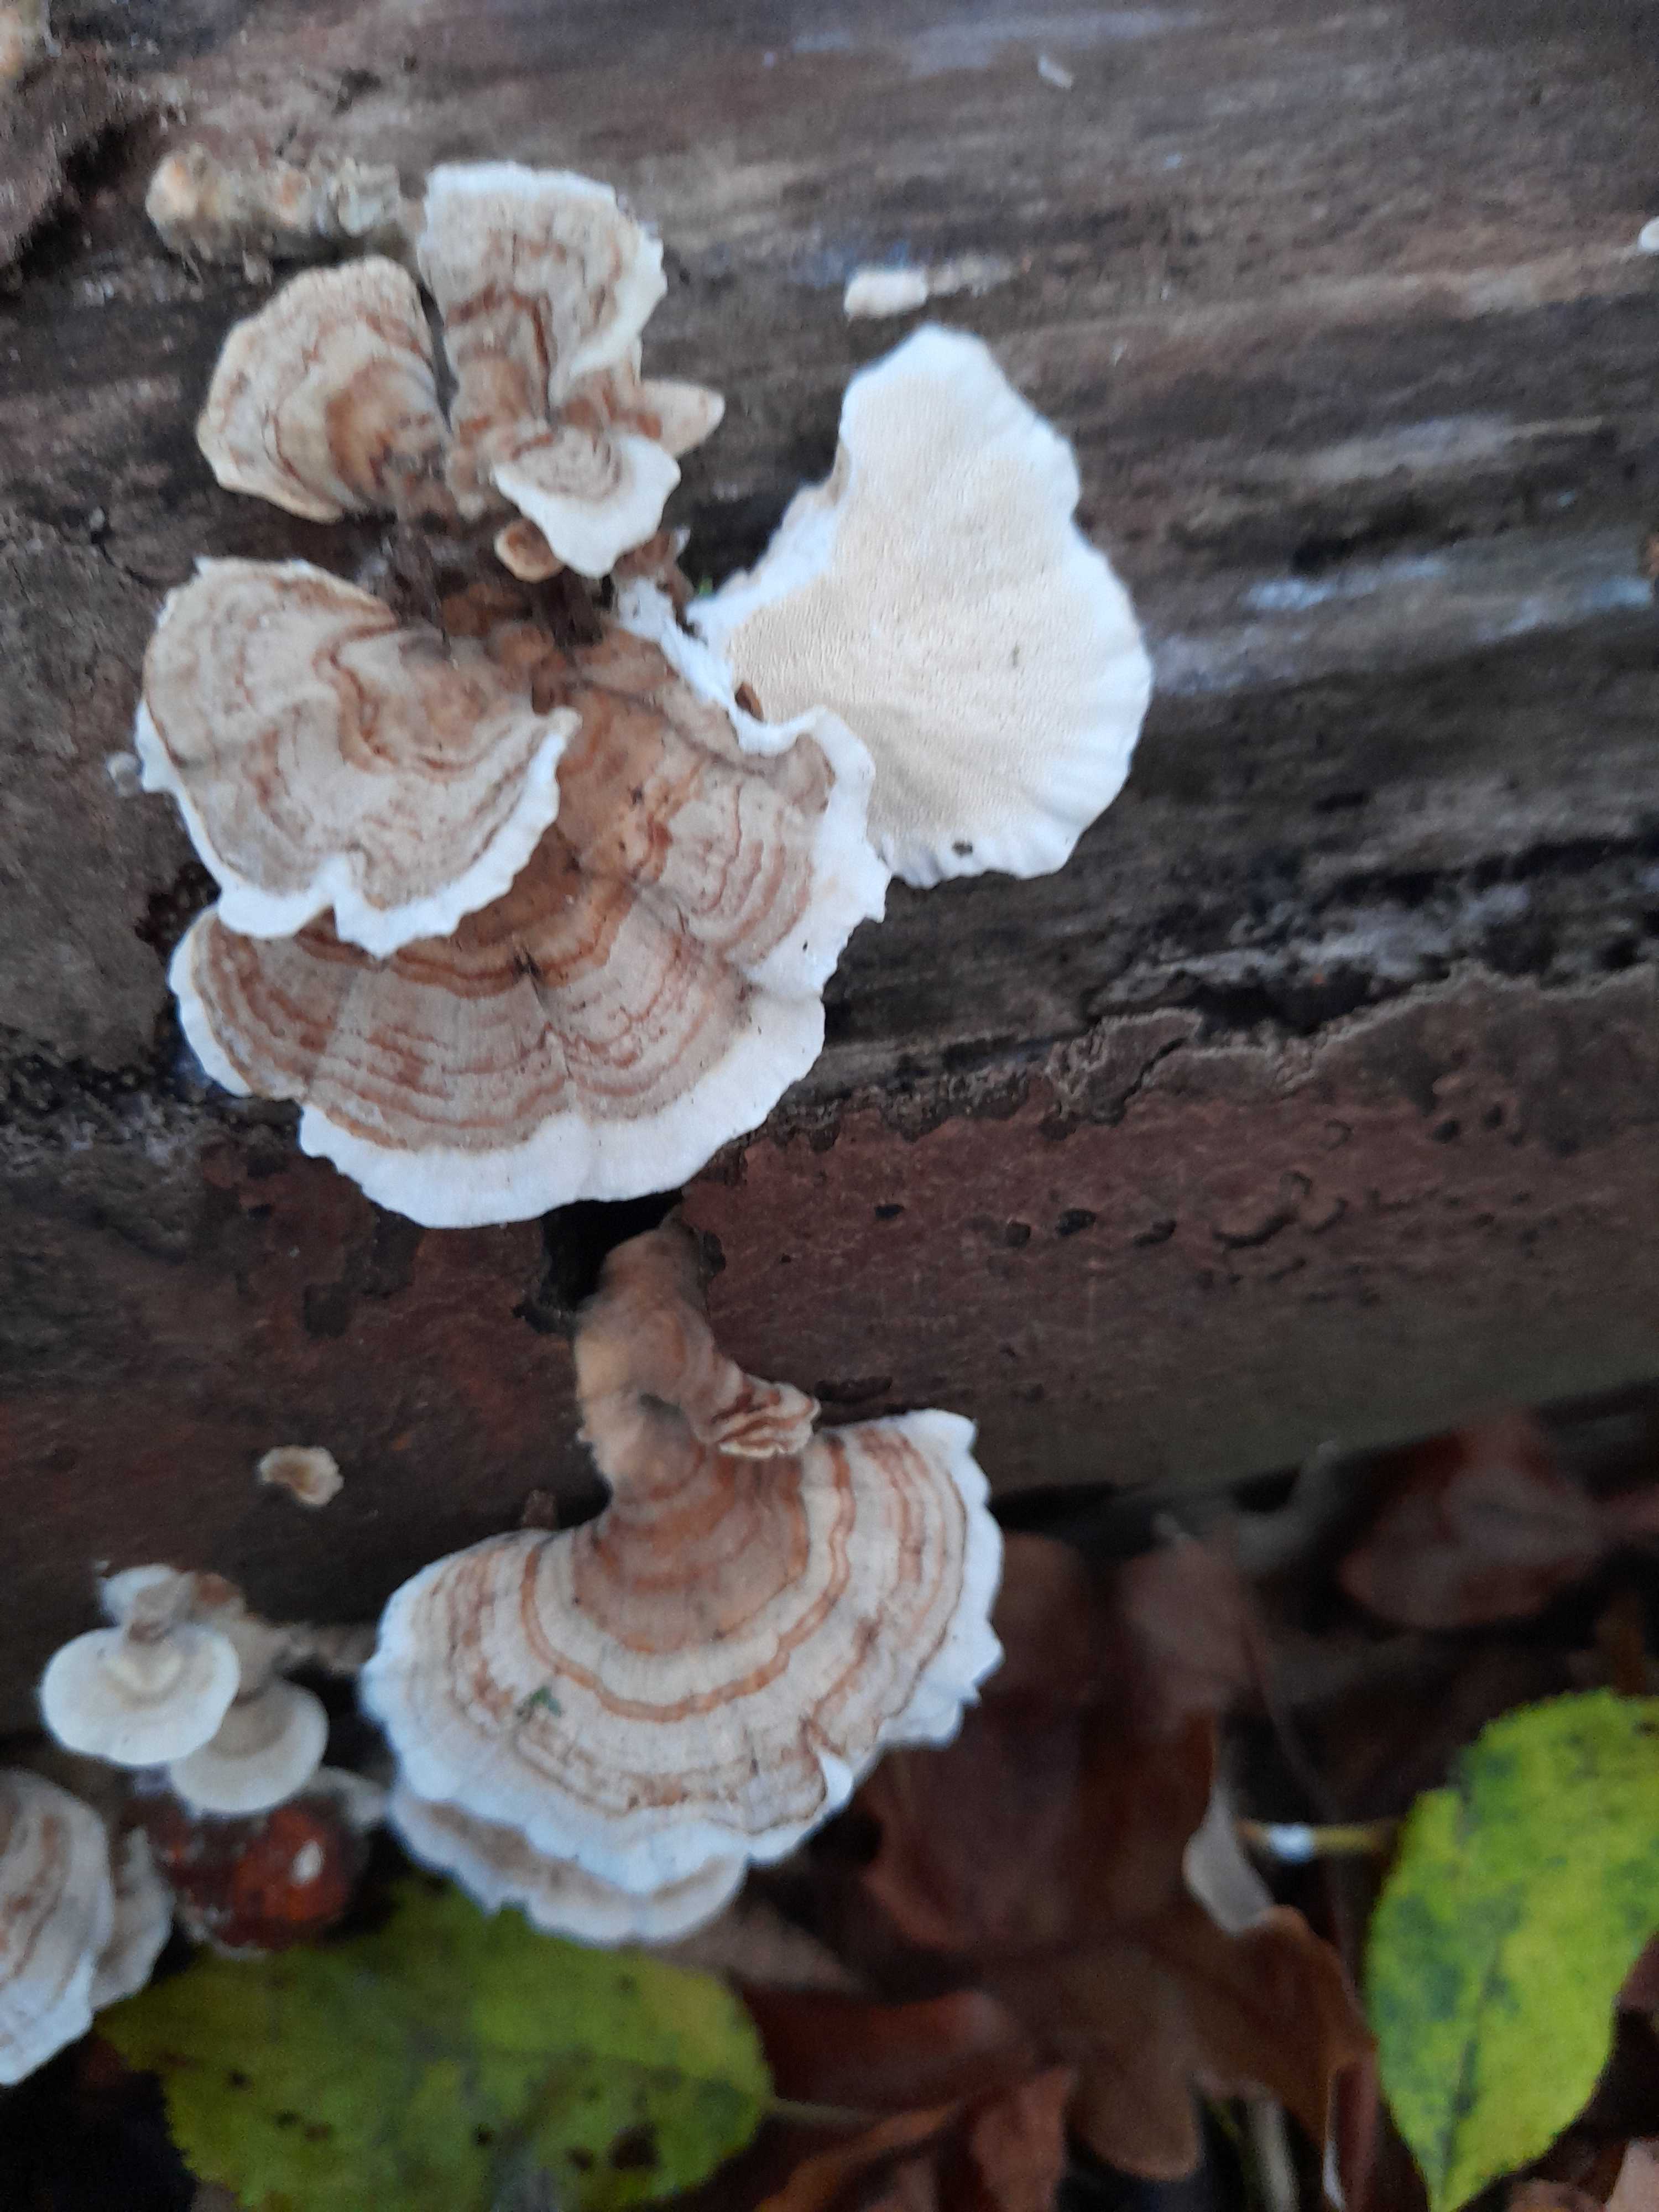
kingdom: Fungi
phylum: Basidiomycota
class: Agaricomycetes
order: Polyporales
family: Polyporaceae
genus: Trametes
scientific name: Trametes versicolor
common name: broget læderporesvamp
